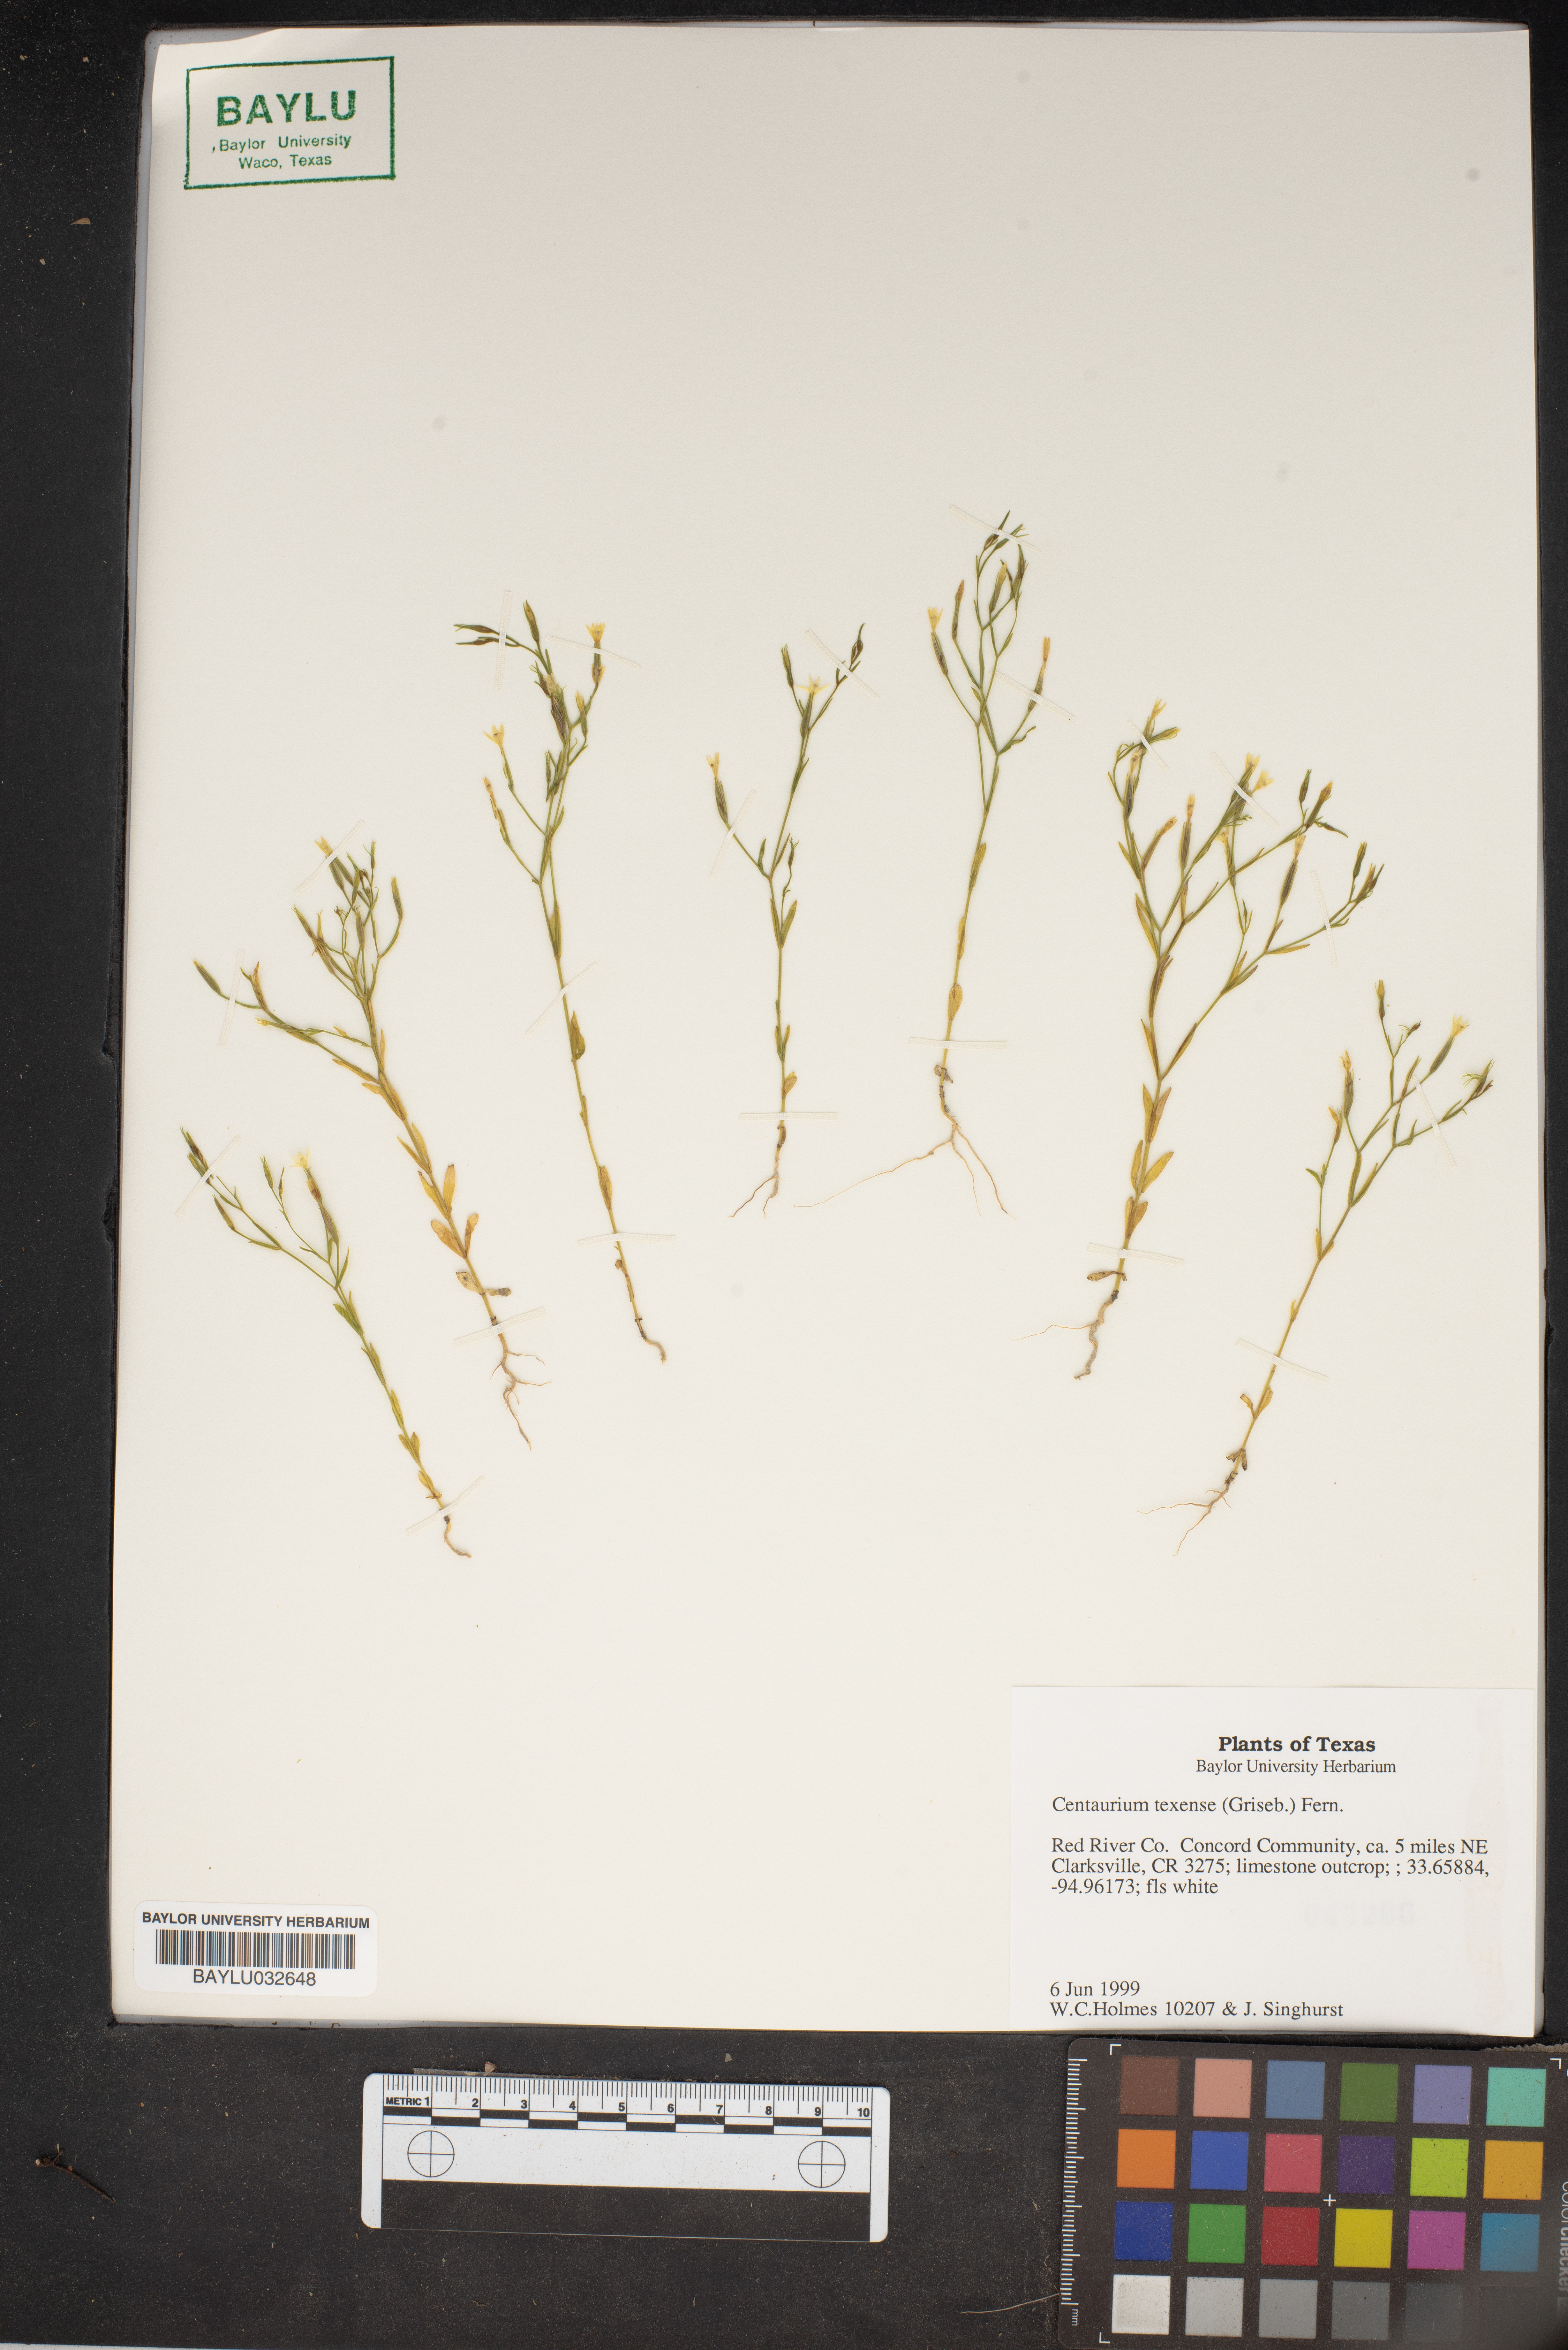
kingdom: Plantae
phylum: Tracheophyta
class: Magnoliopsida
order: Gentianales
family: Gentianaceae
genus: Zeltnera
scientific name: Zeltnera texensis
